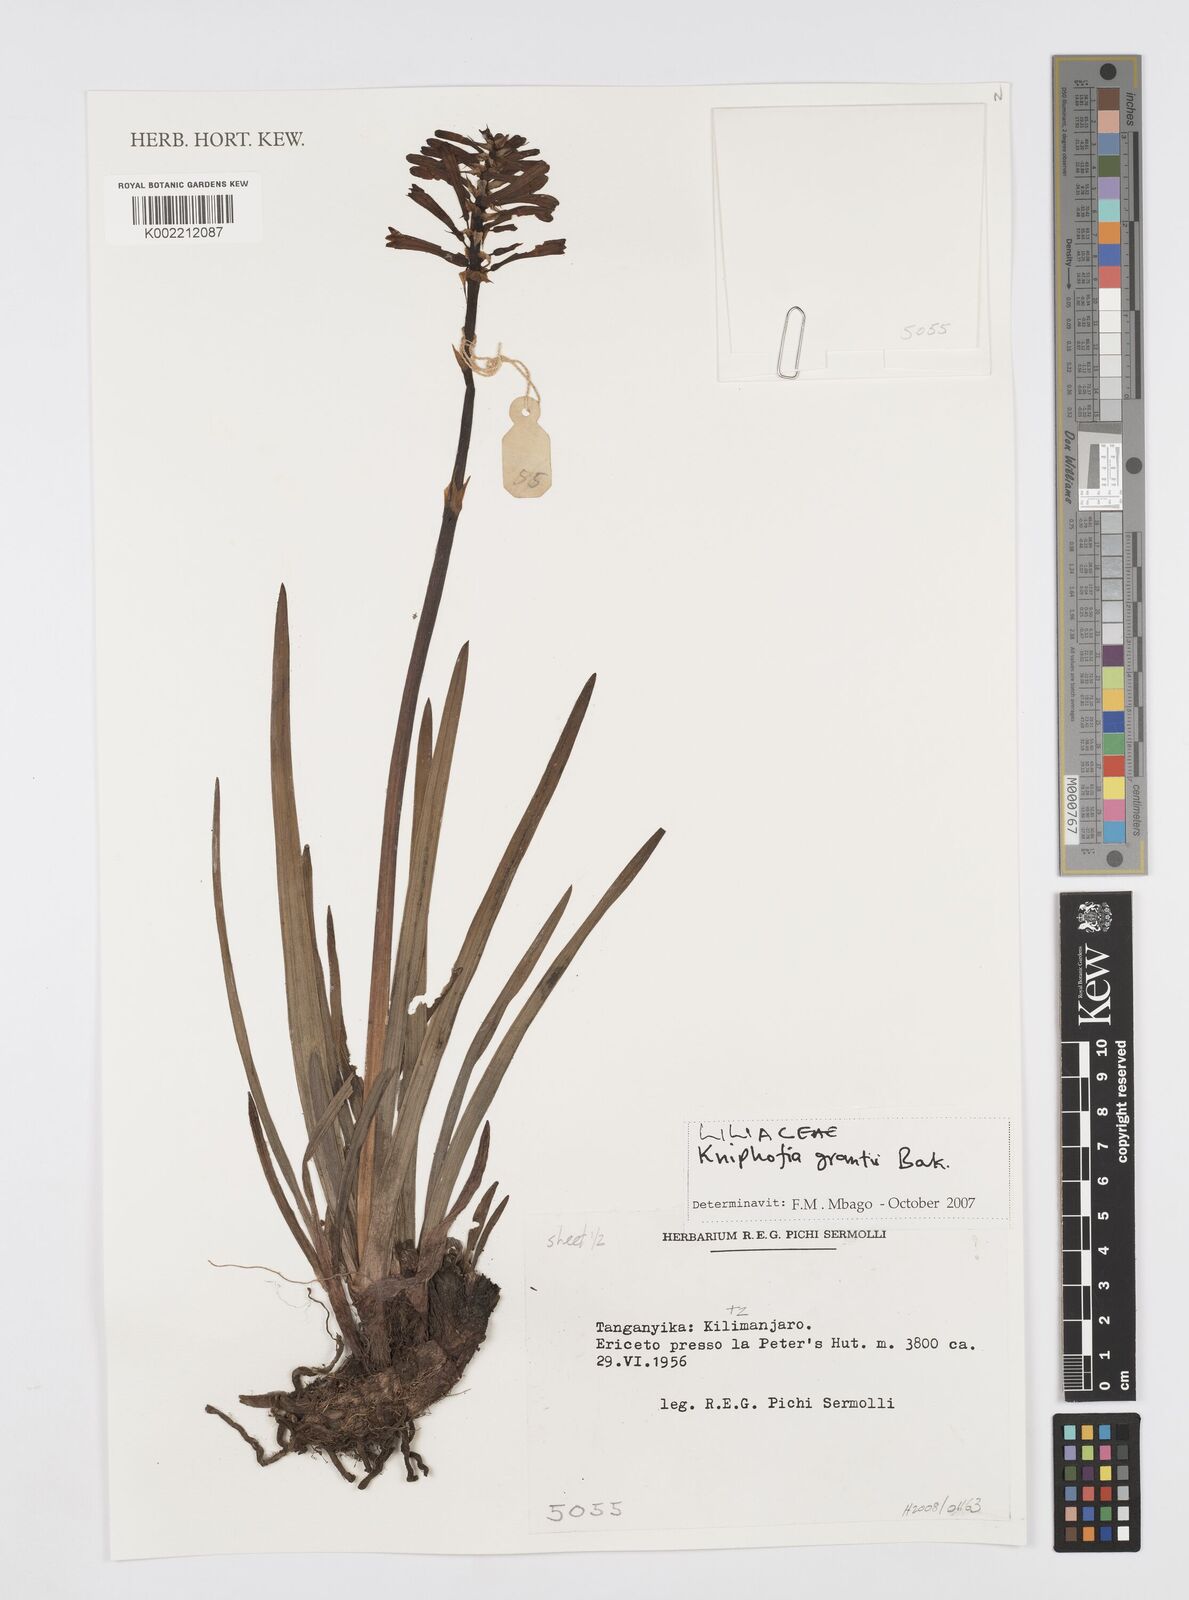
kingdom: Plantae
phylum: Tracheophyta
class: Liliopsida
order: Asparagales
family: Asphodelaceae
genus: Kniphofia
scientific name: Kniphofia grantii
